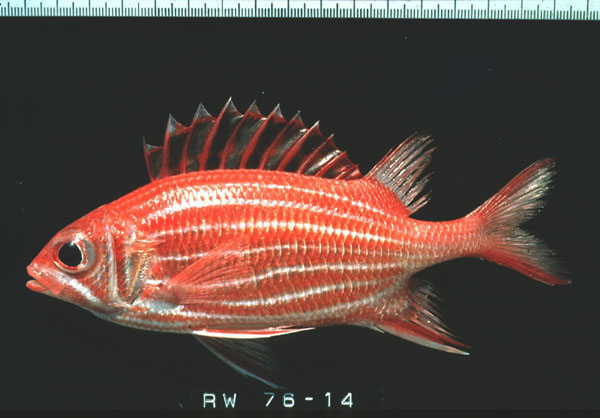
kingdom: Animalia
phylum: Chordata
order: Beryciformes
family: Holocentridae
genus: Sargocentron
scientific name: Sargocentron diadema
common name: Crown squirrelfish
